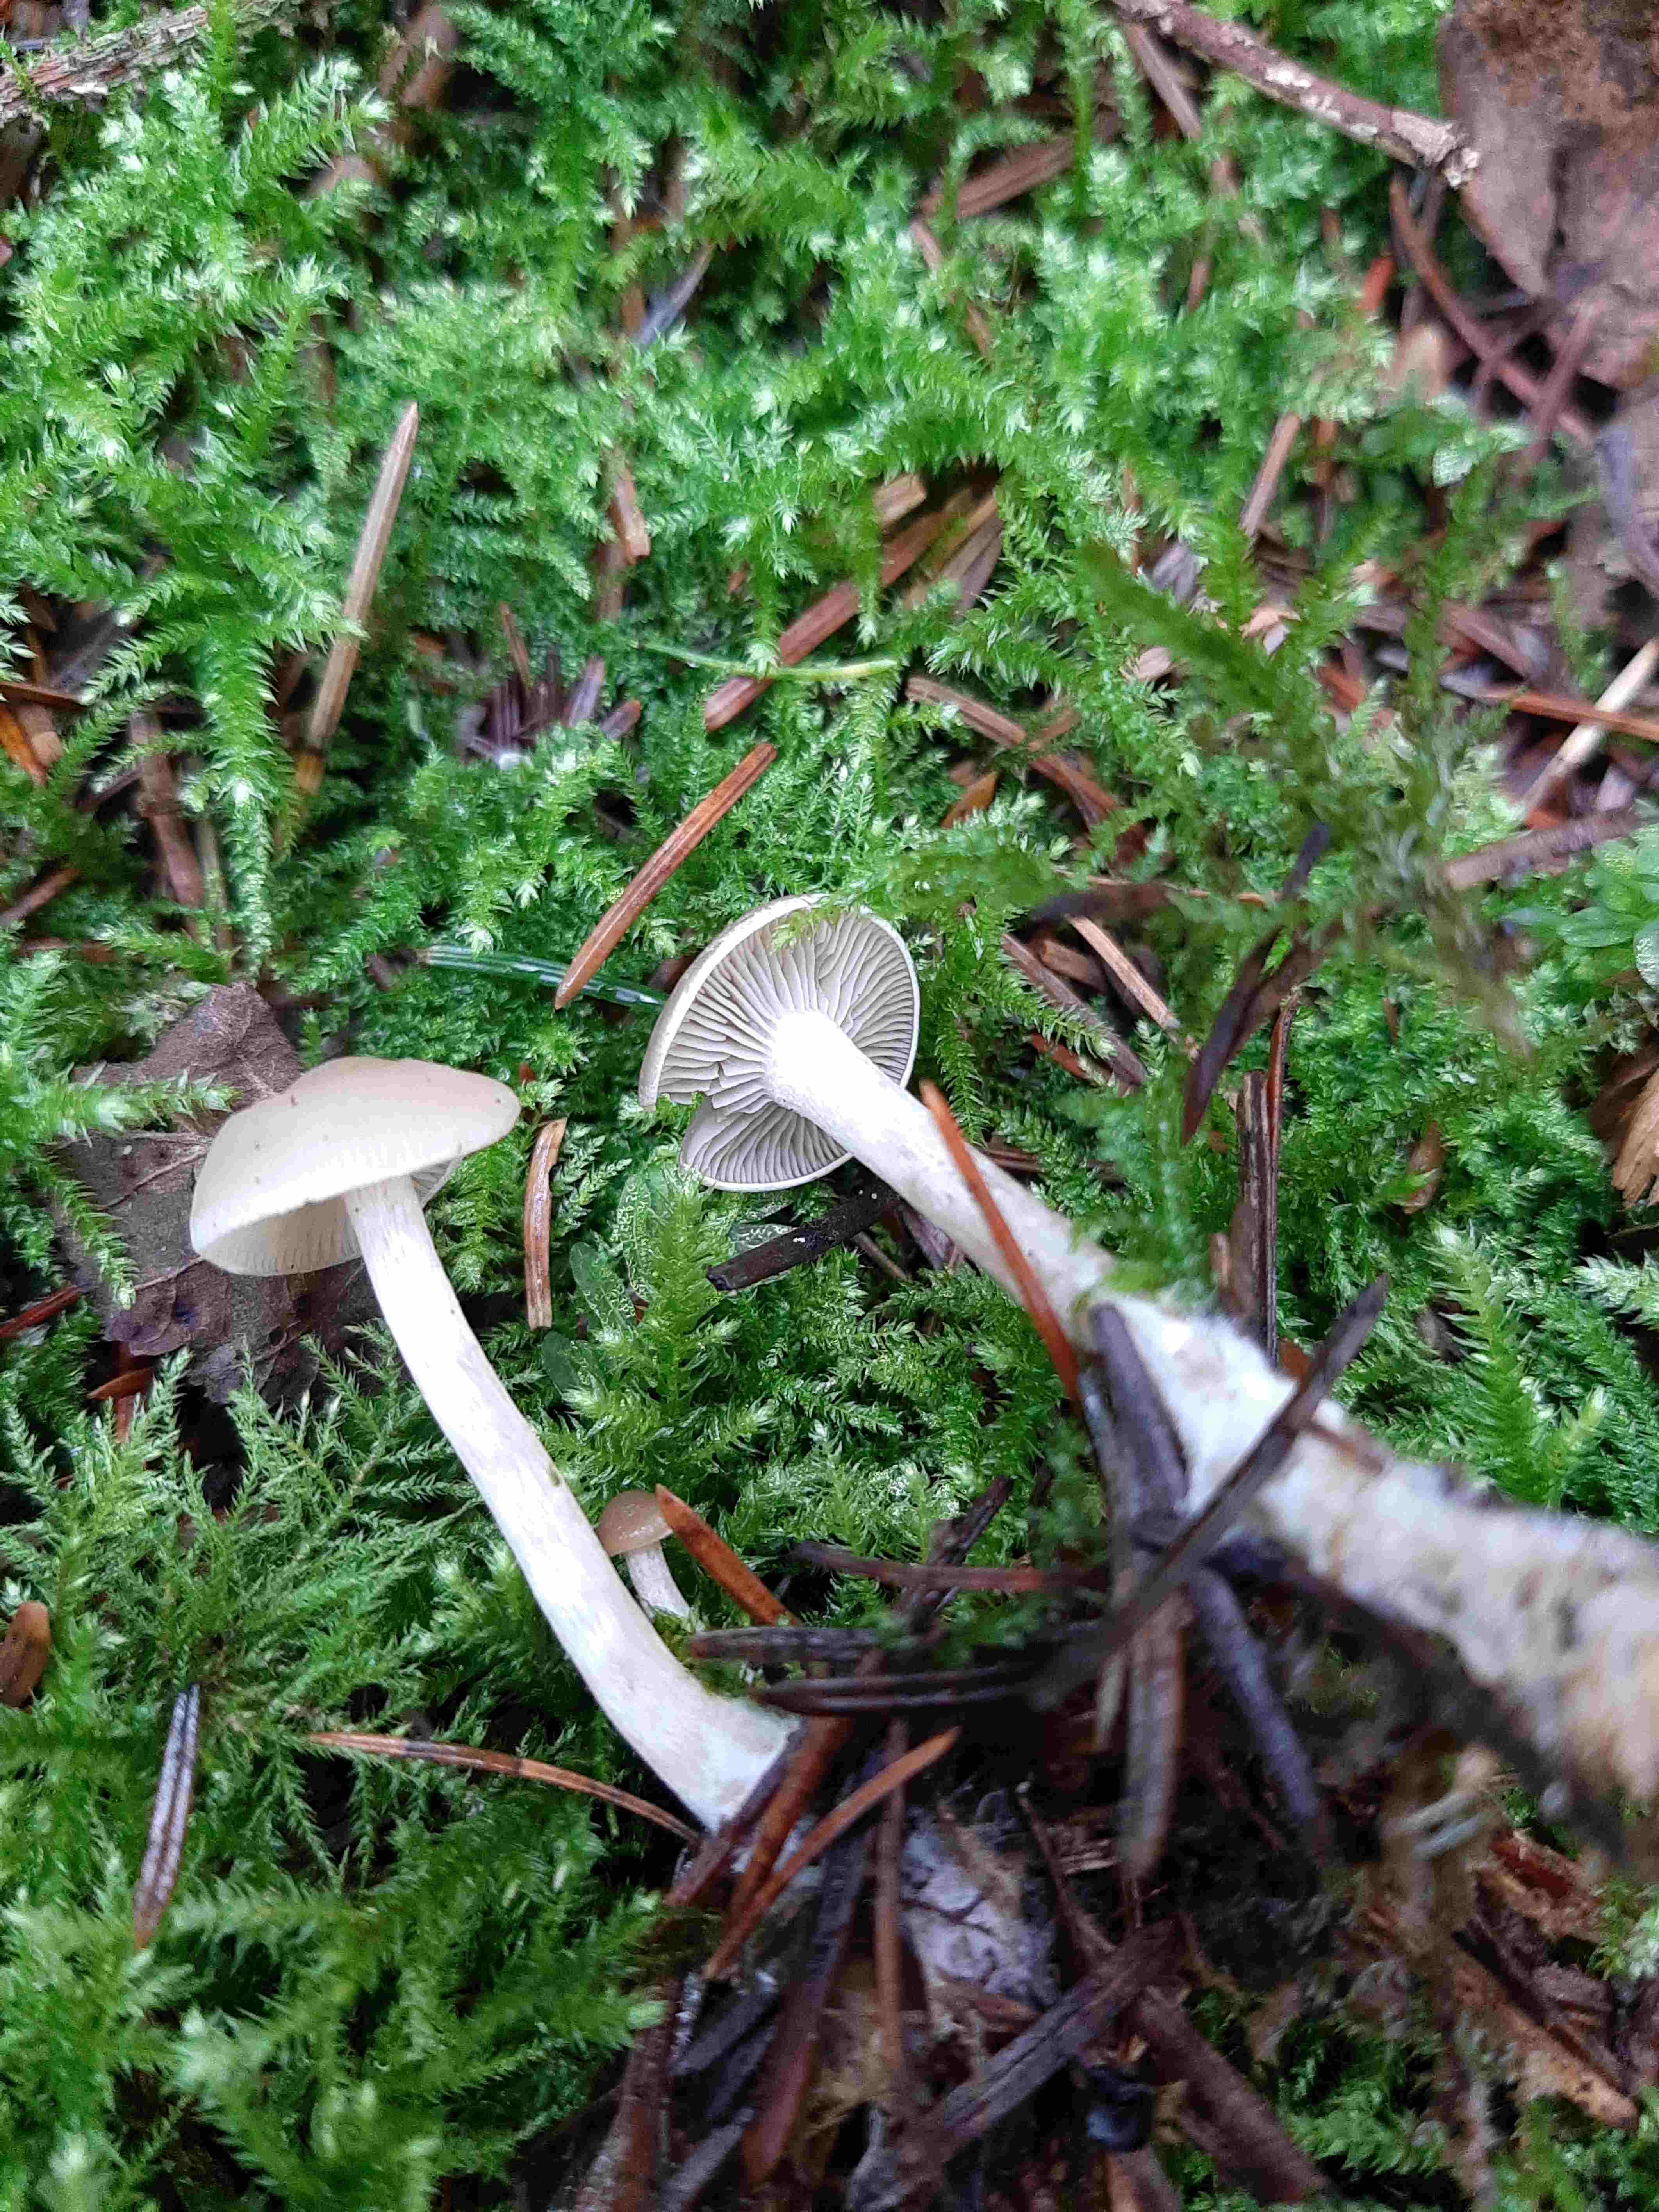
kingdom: Fungi
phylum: Basidiomycota
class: Agaricomycetes
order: Agaricales
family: Tricholomataceae
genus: Clitocybe
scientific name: Clitocybe
